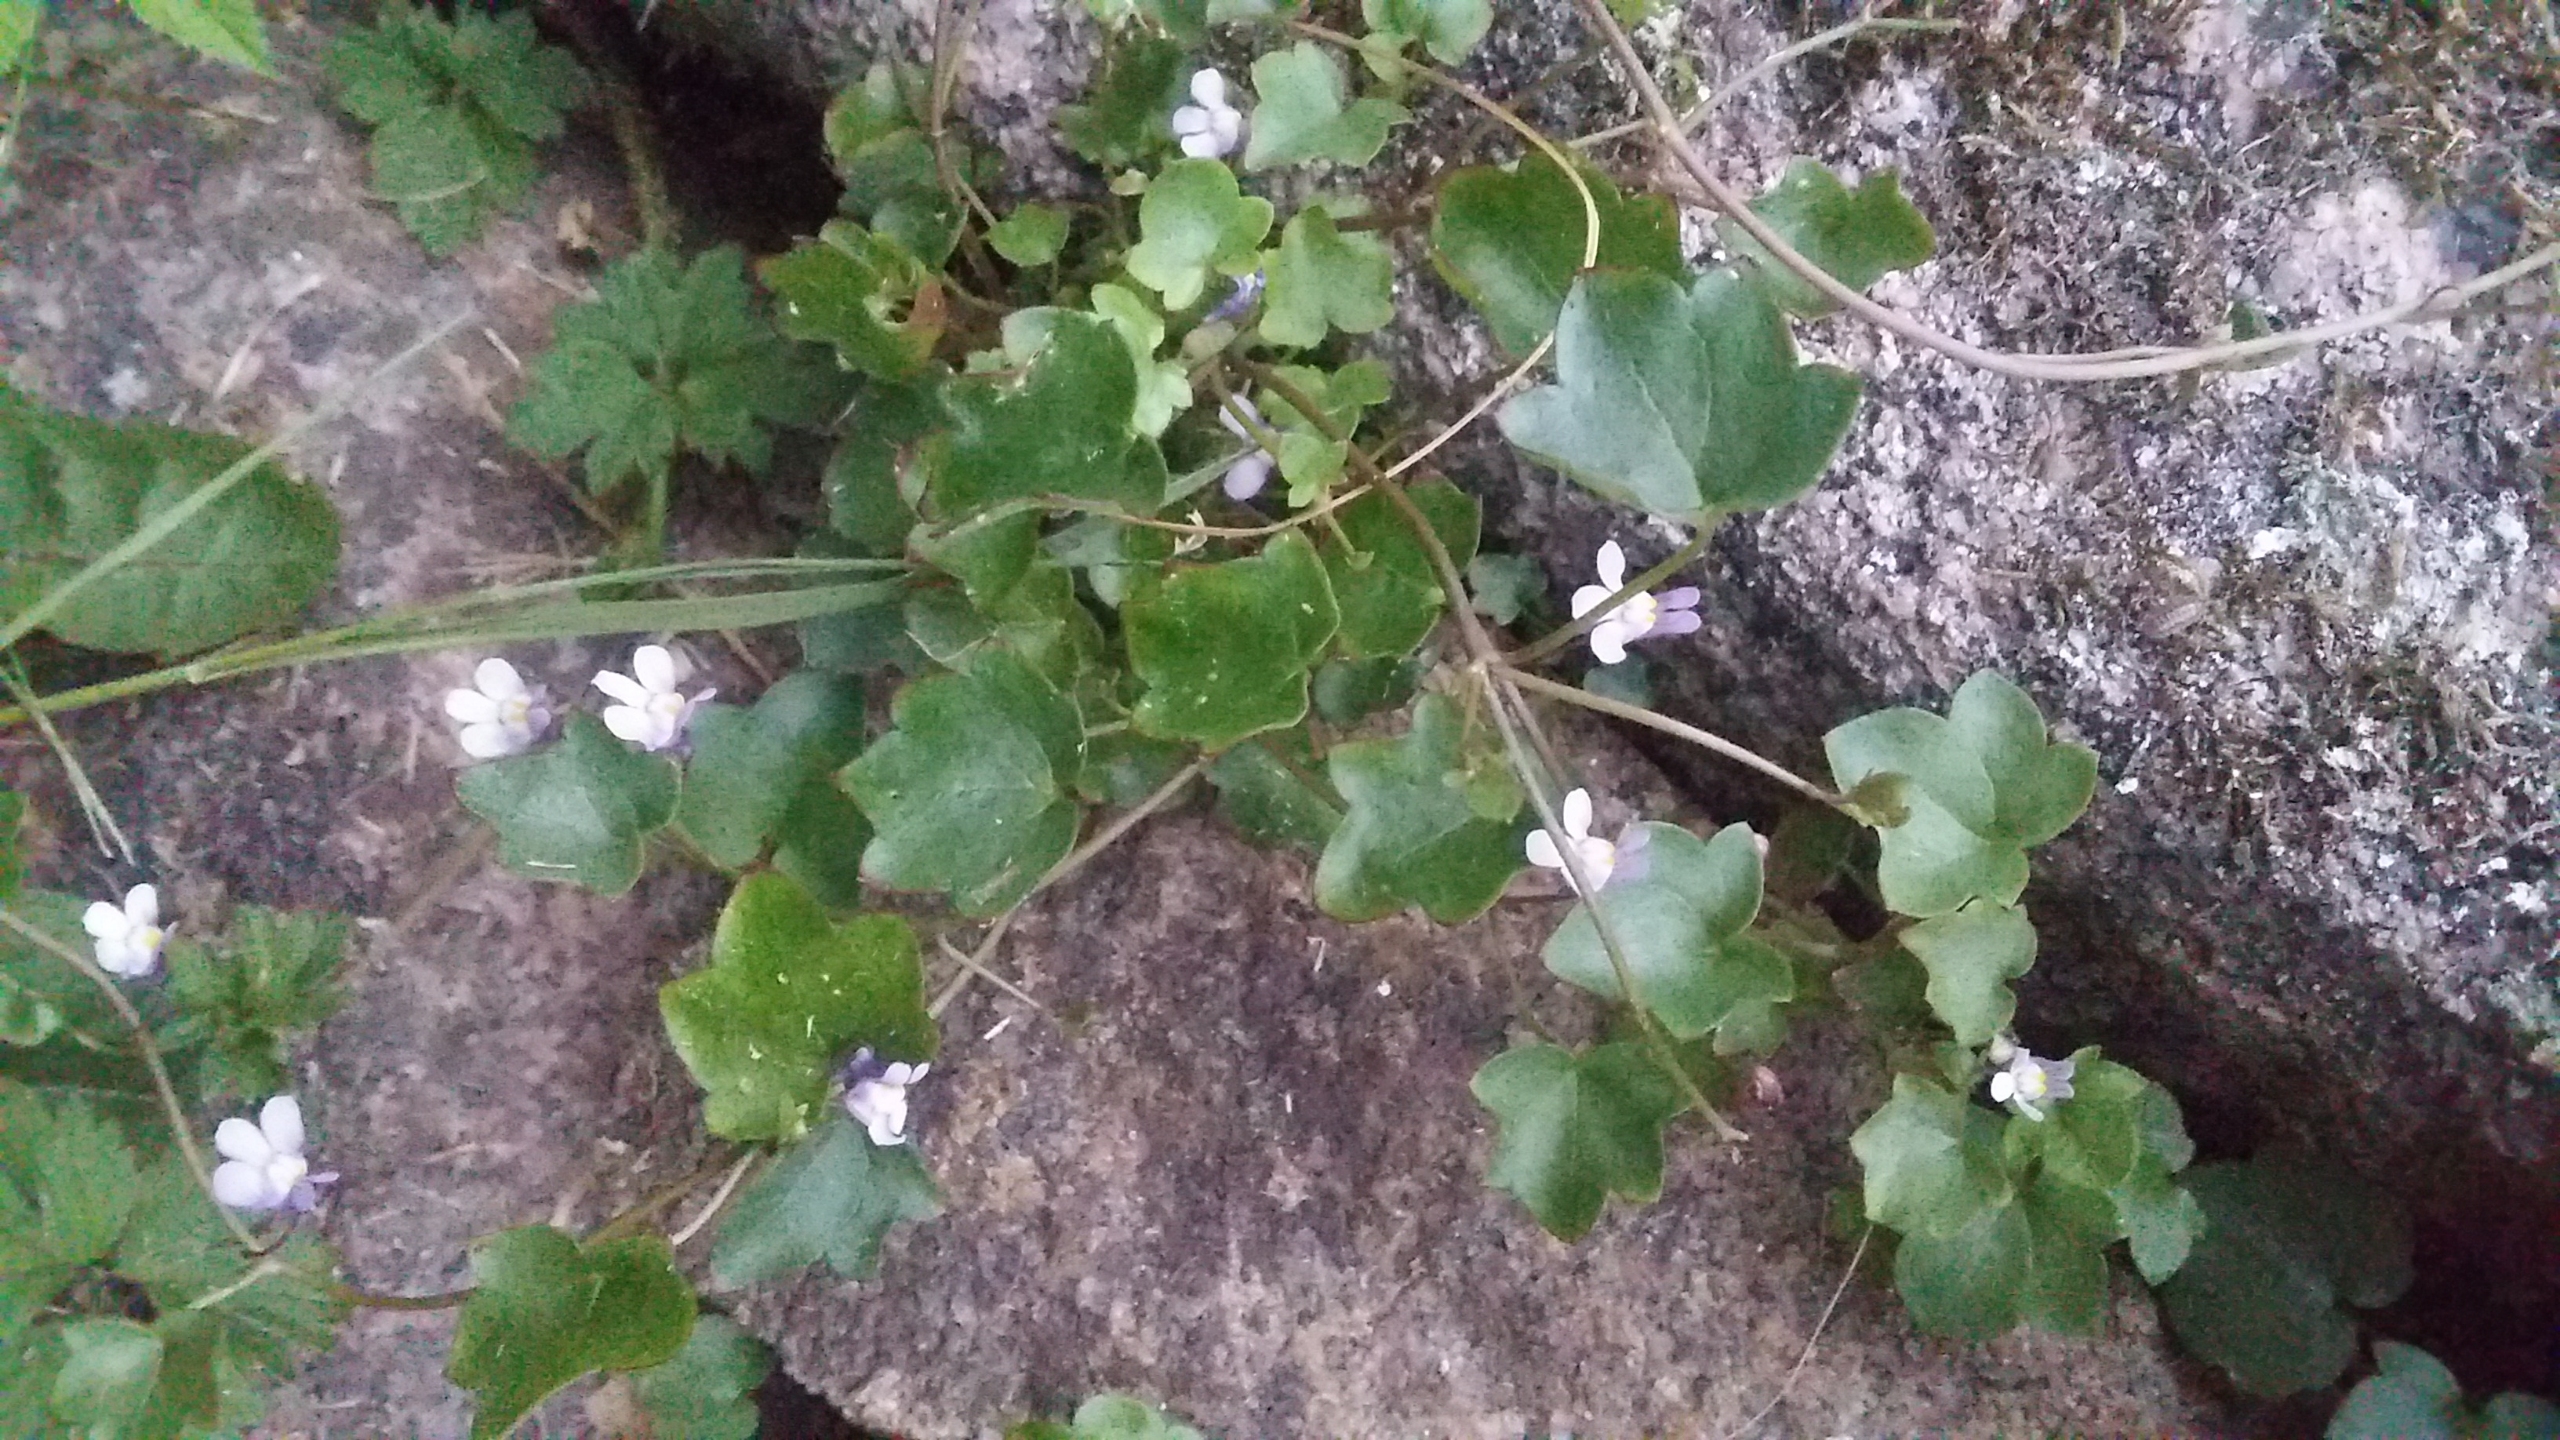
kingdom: Plantae
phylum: Tracheophyta
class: Magnoliopsida
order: Lamiales
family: Plantaginaceae
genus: Cymbalaria
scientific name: Cymbalaria muralis
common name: Vedbend-torskemund
